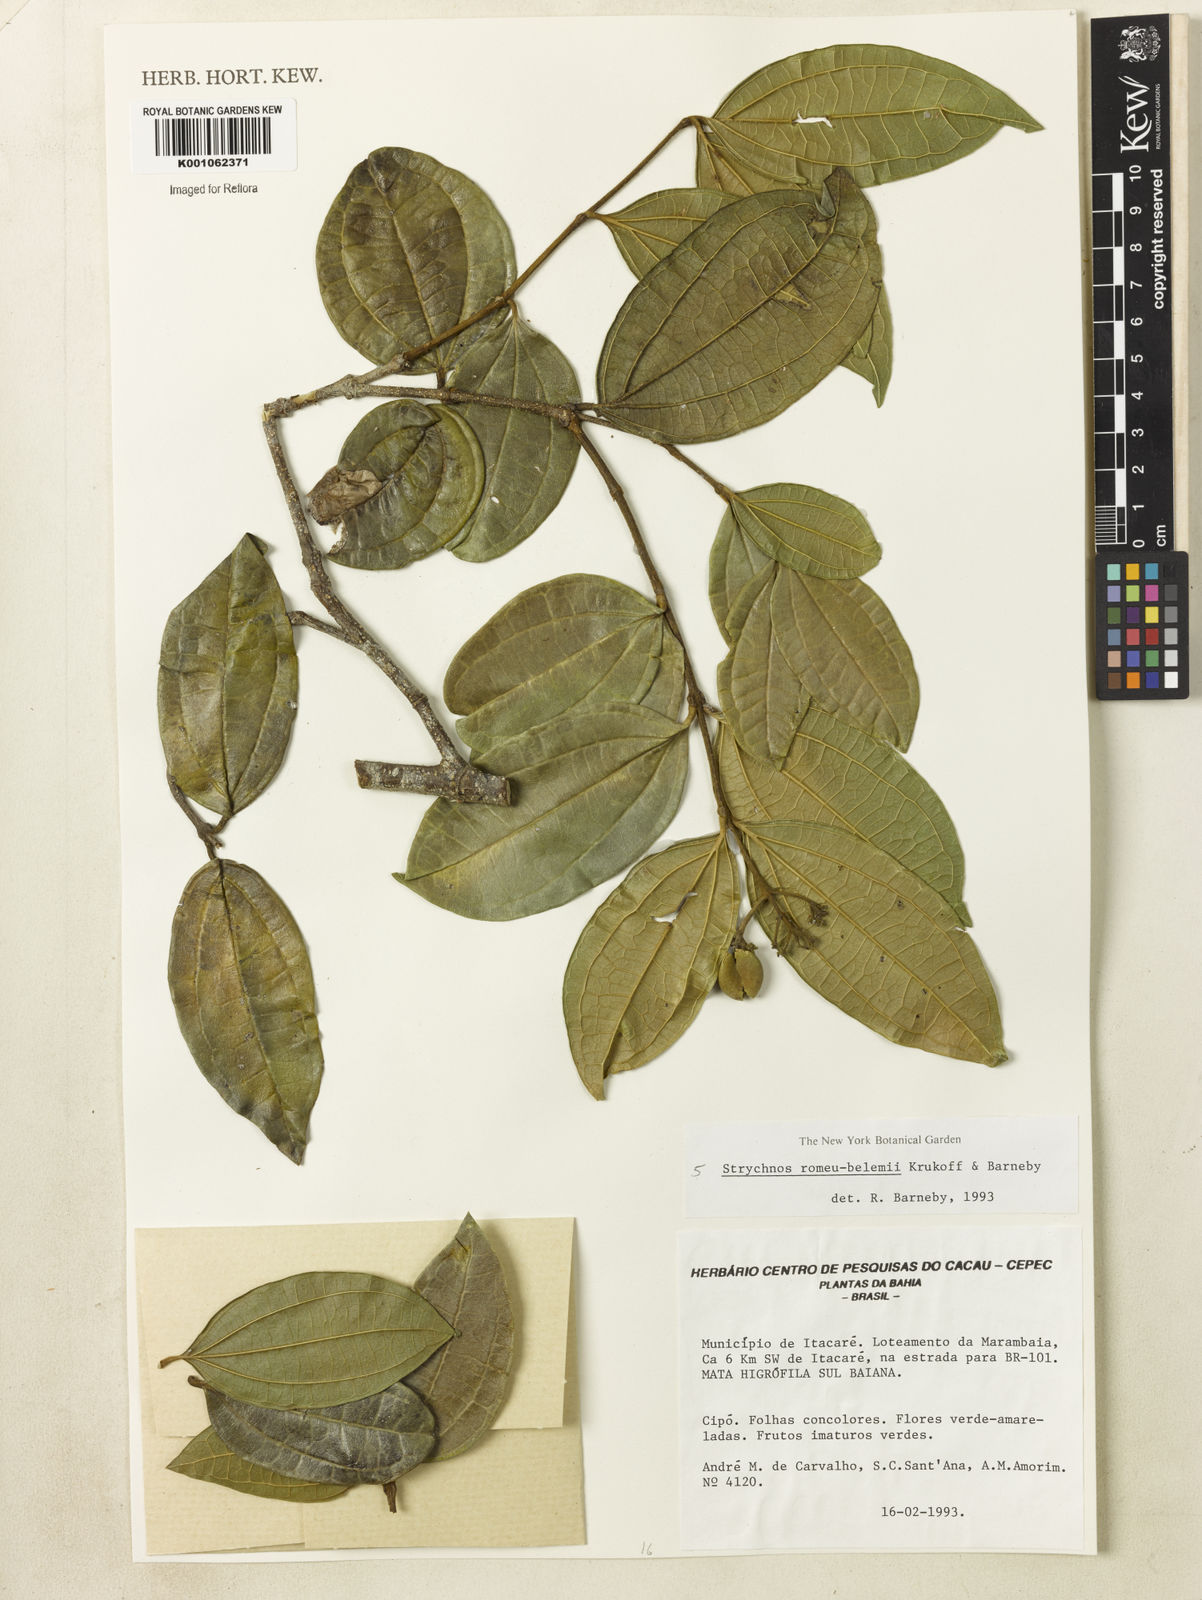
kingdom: Plantae
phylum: Tracheophyta
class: Magnoliopsida
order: Gentianales
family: Loganiaceae
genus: Strychnos
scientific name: Strychnos romeu-belenii
